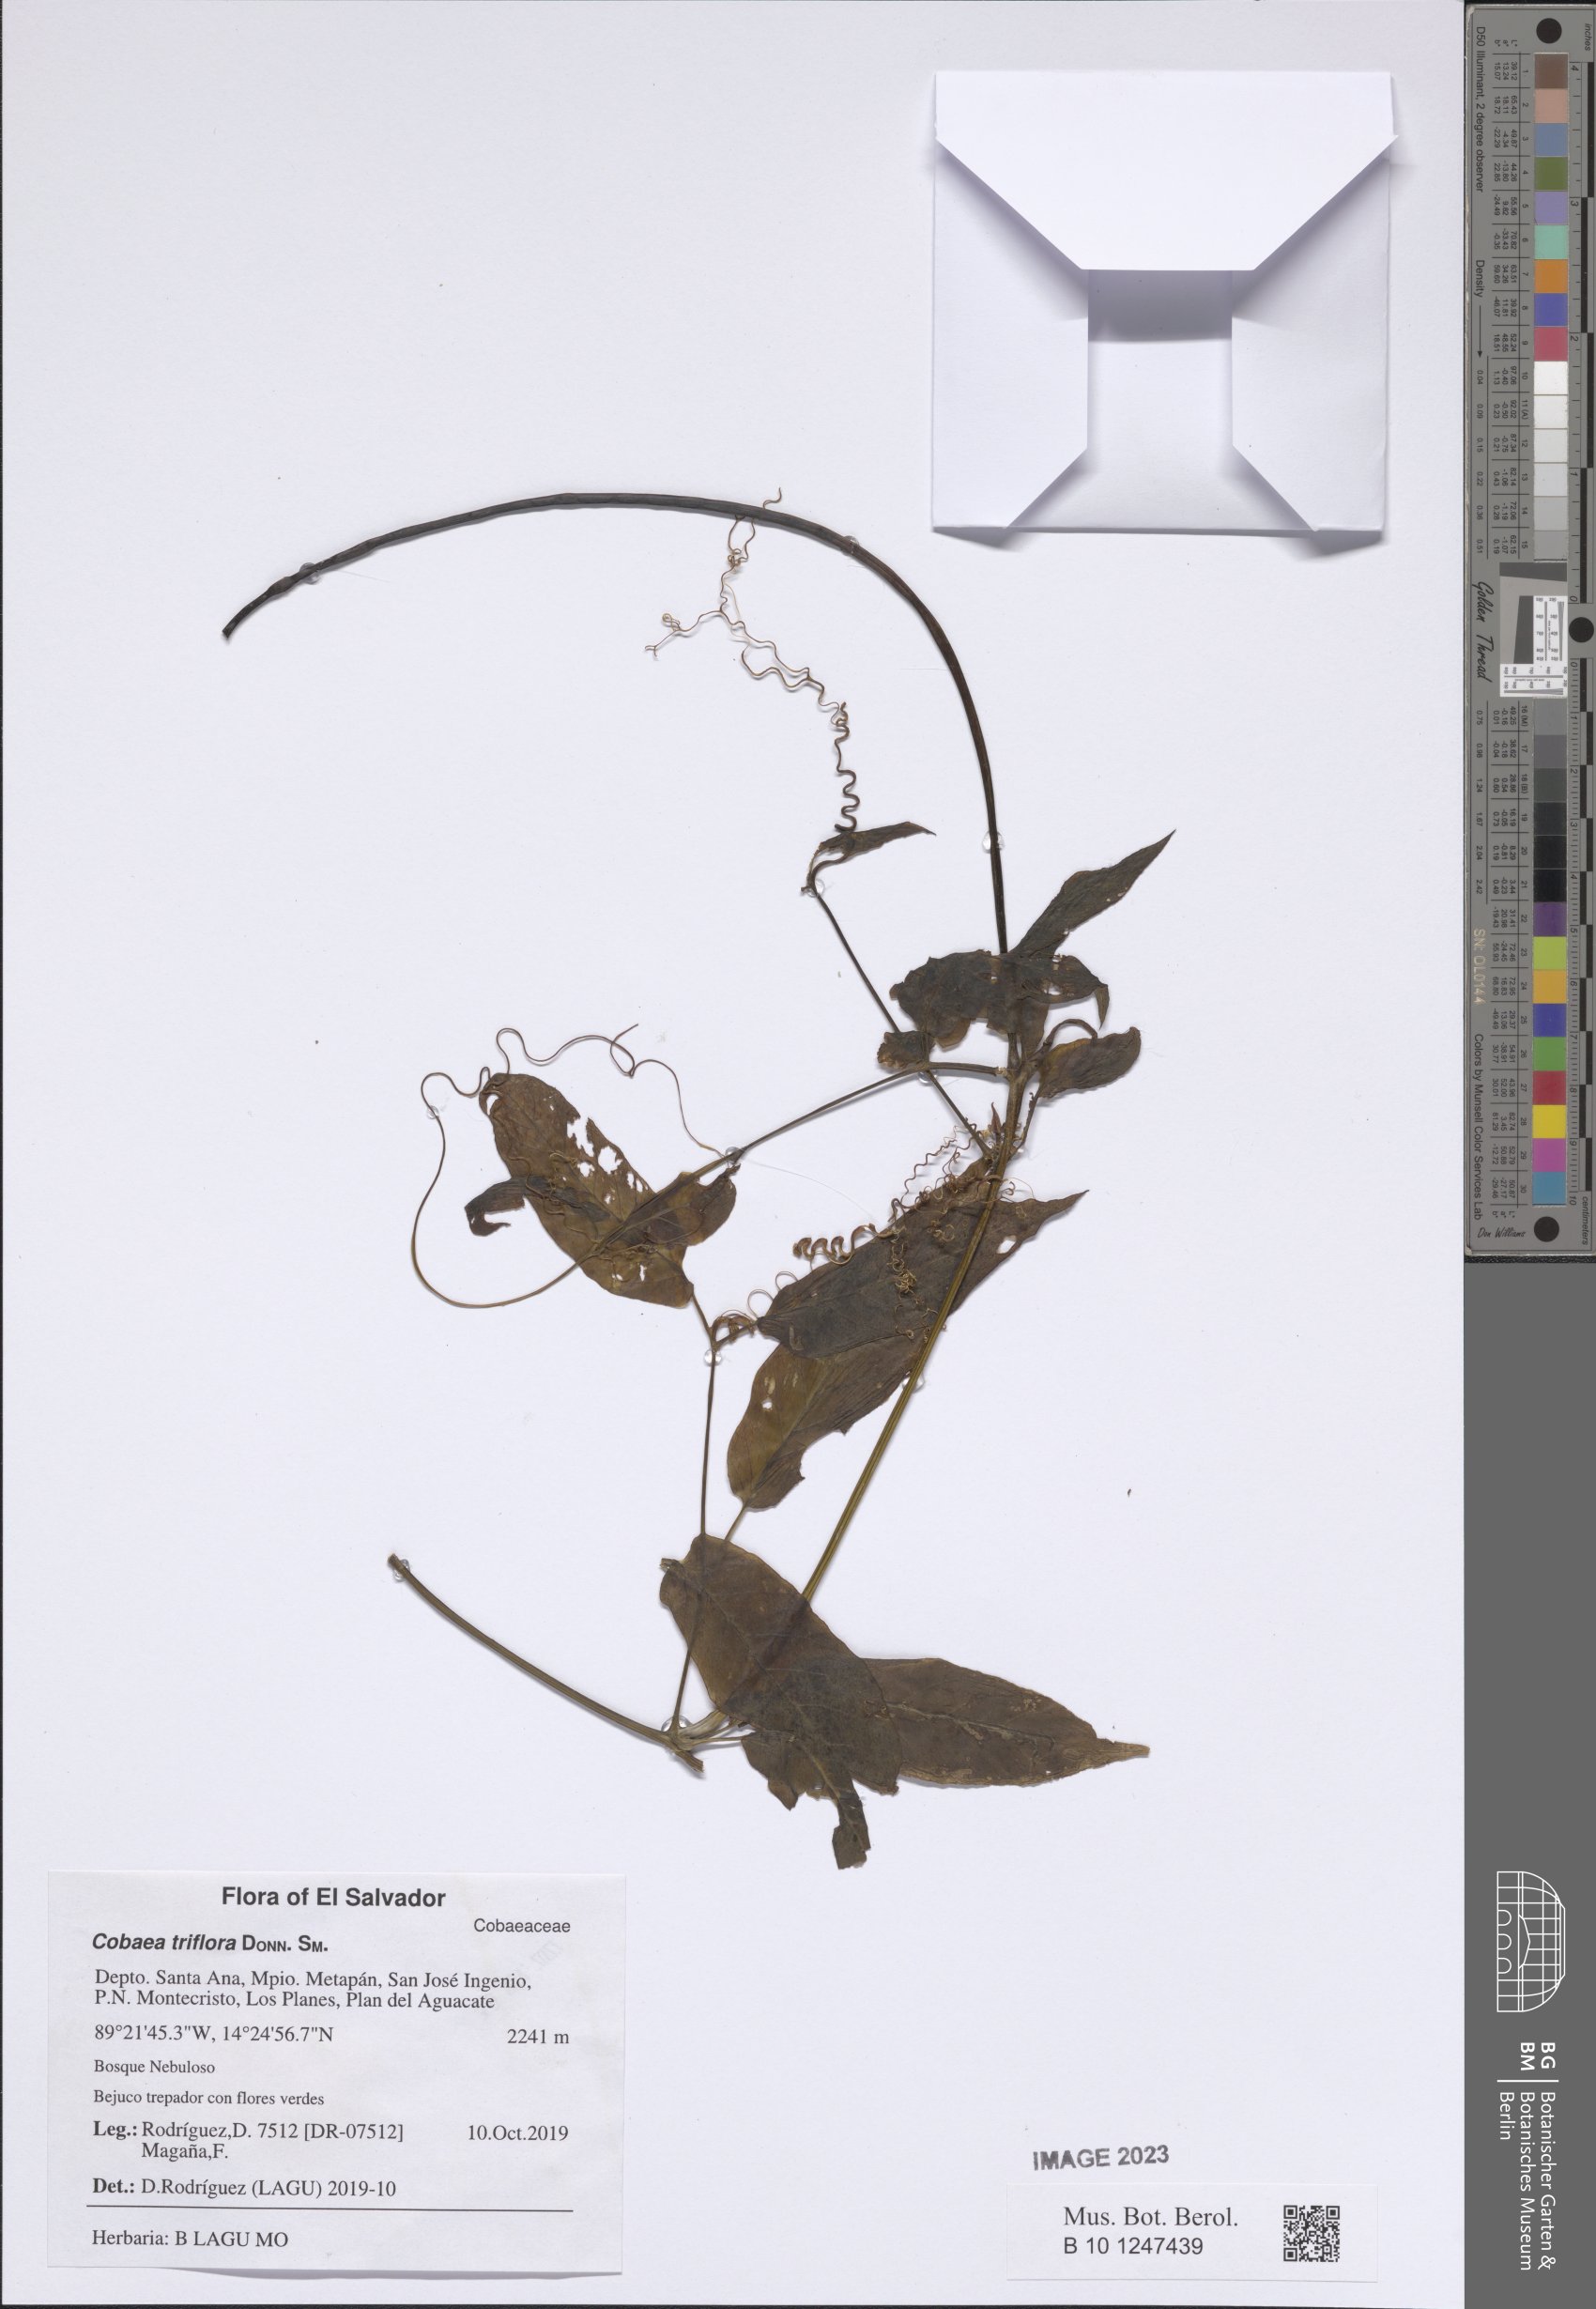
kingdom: Plantae
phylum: Tracheophyta
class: Magnoliopsida
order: Ericales
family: Polemoniaceae
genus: Cobaea
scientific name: Cobaea triflora
